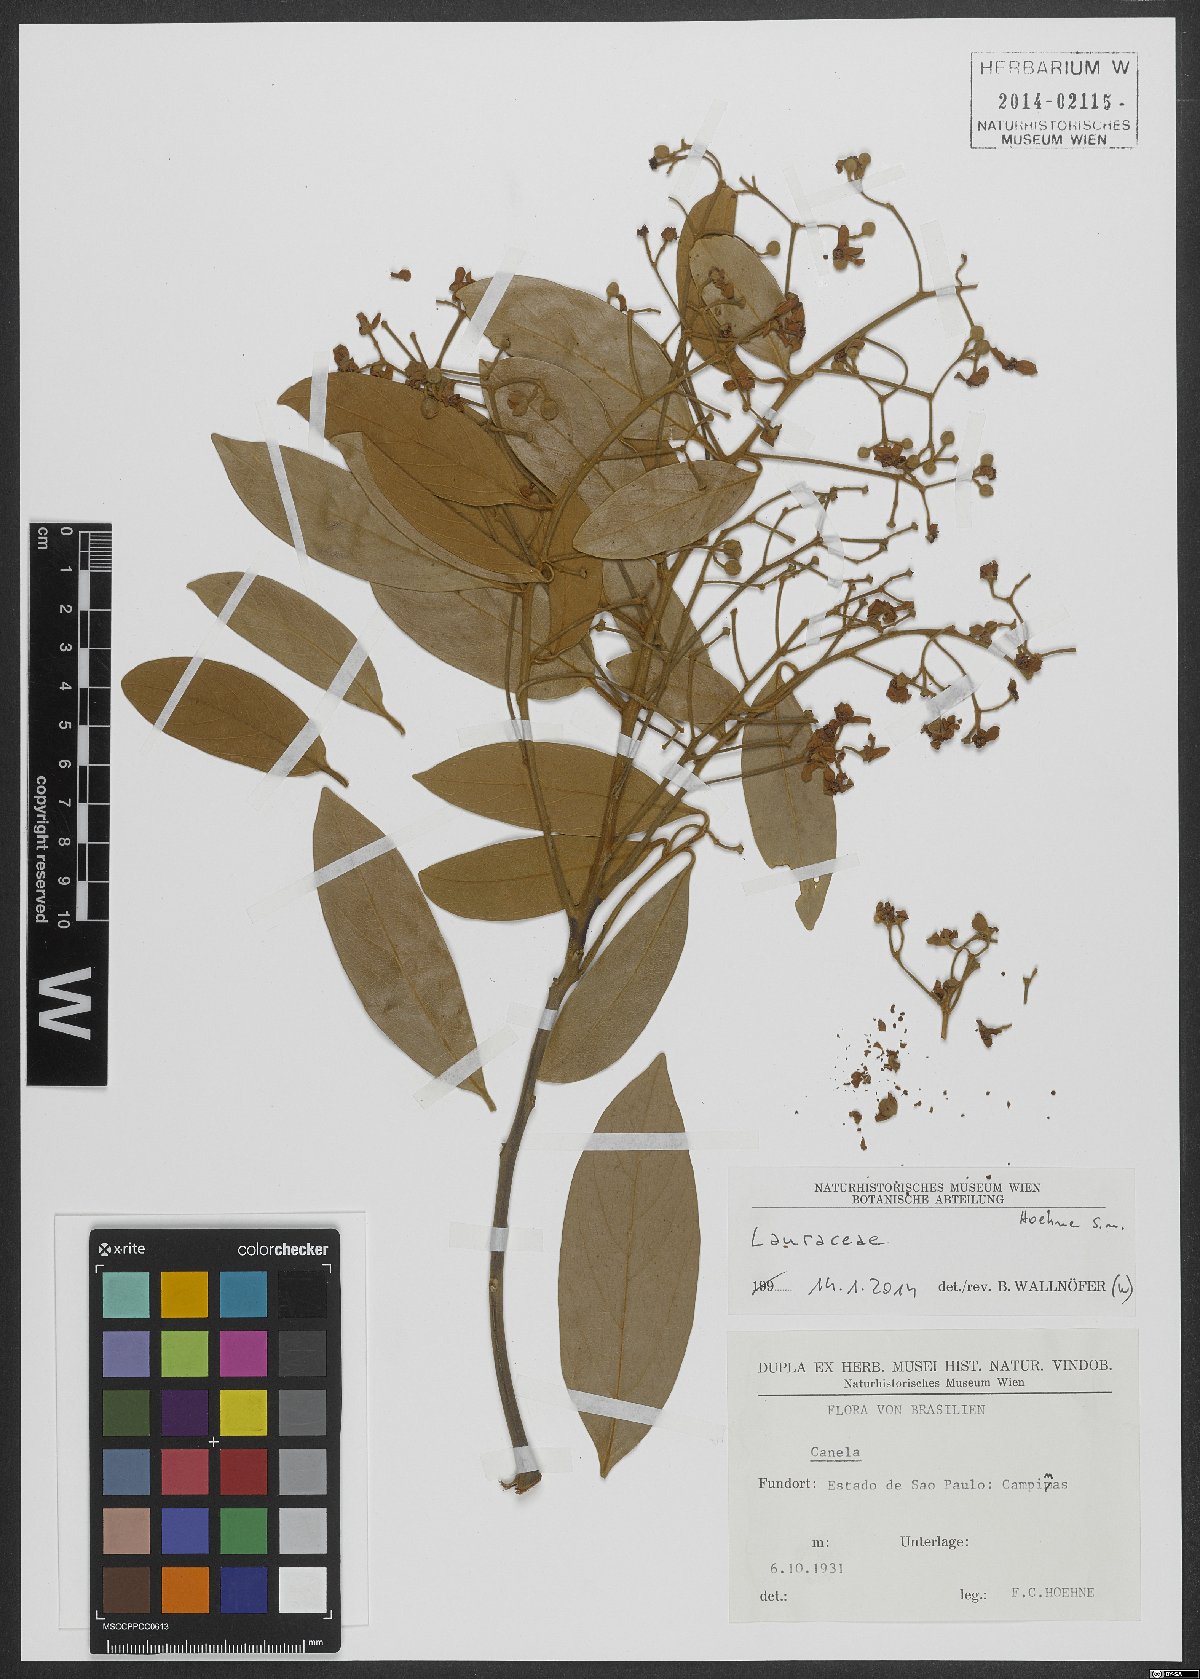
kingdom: Plantae
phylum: Tracheophyta
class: Magnoliopsida
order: Laurales
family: Lauraceae
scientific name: Lauraceae
